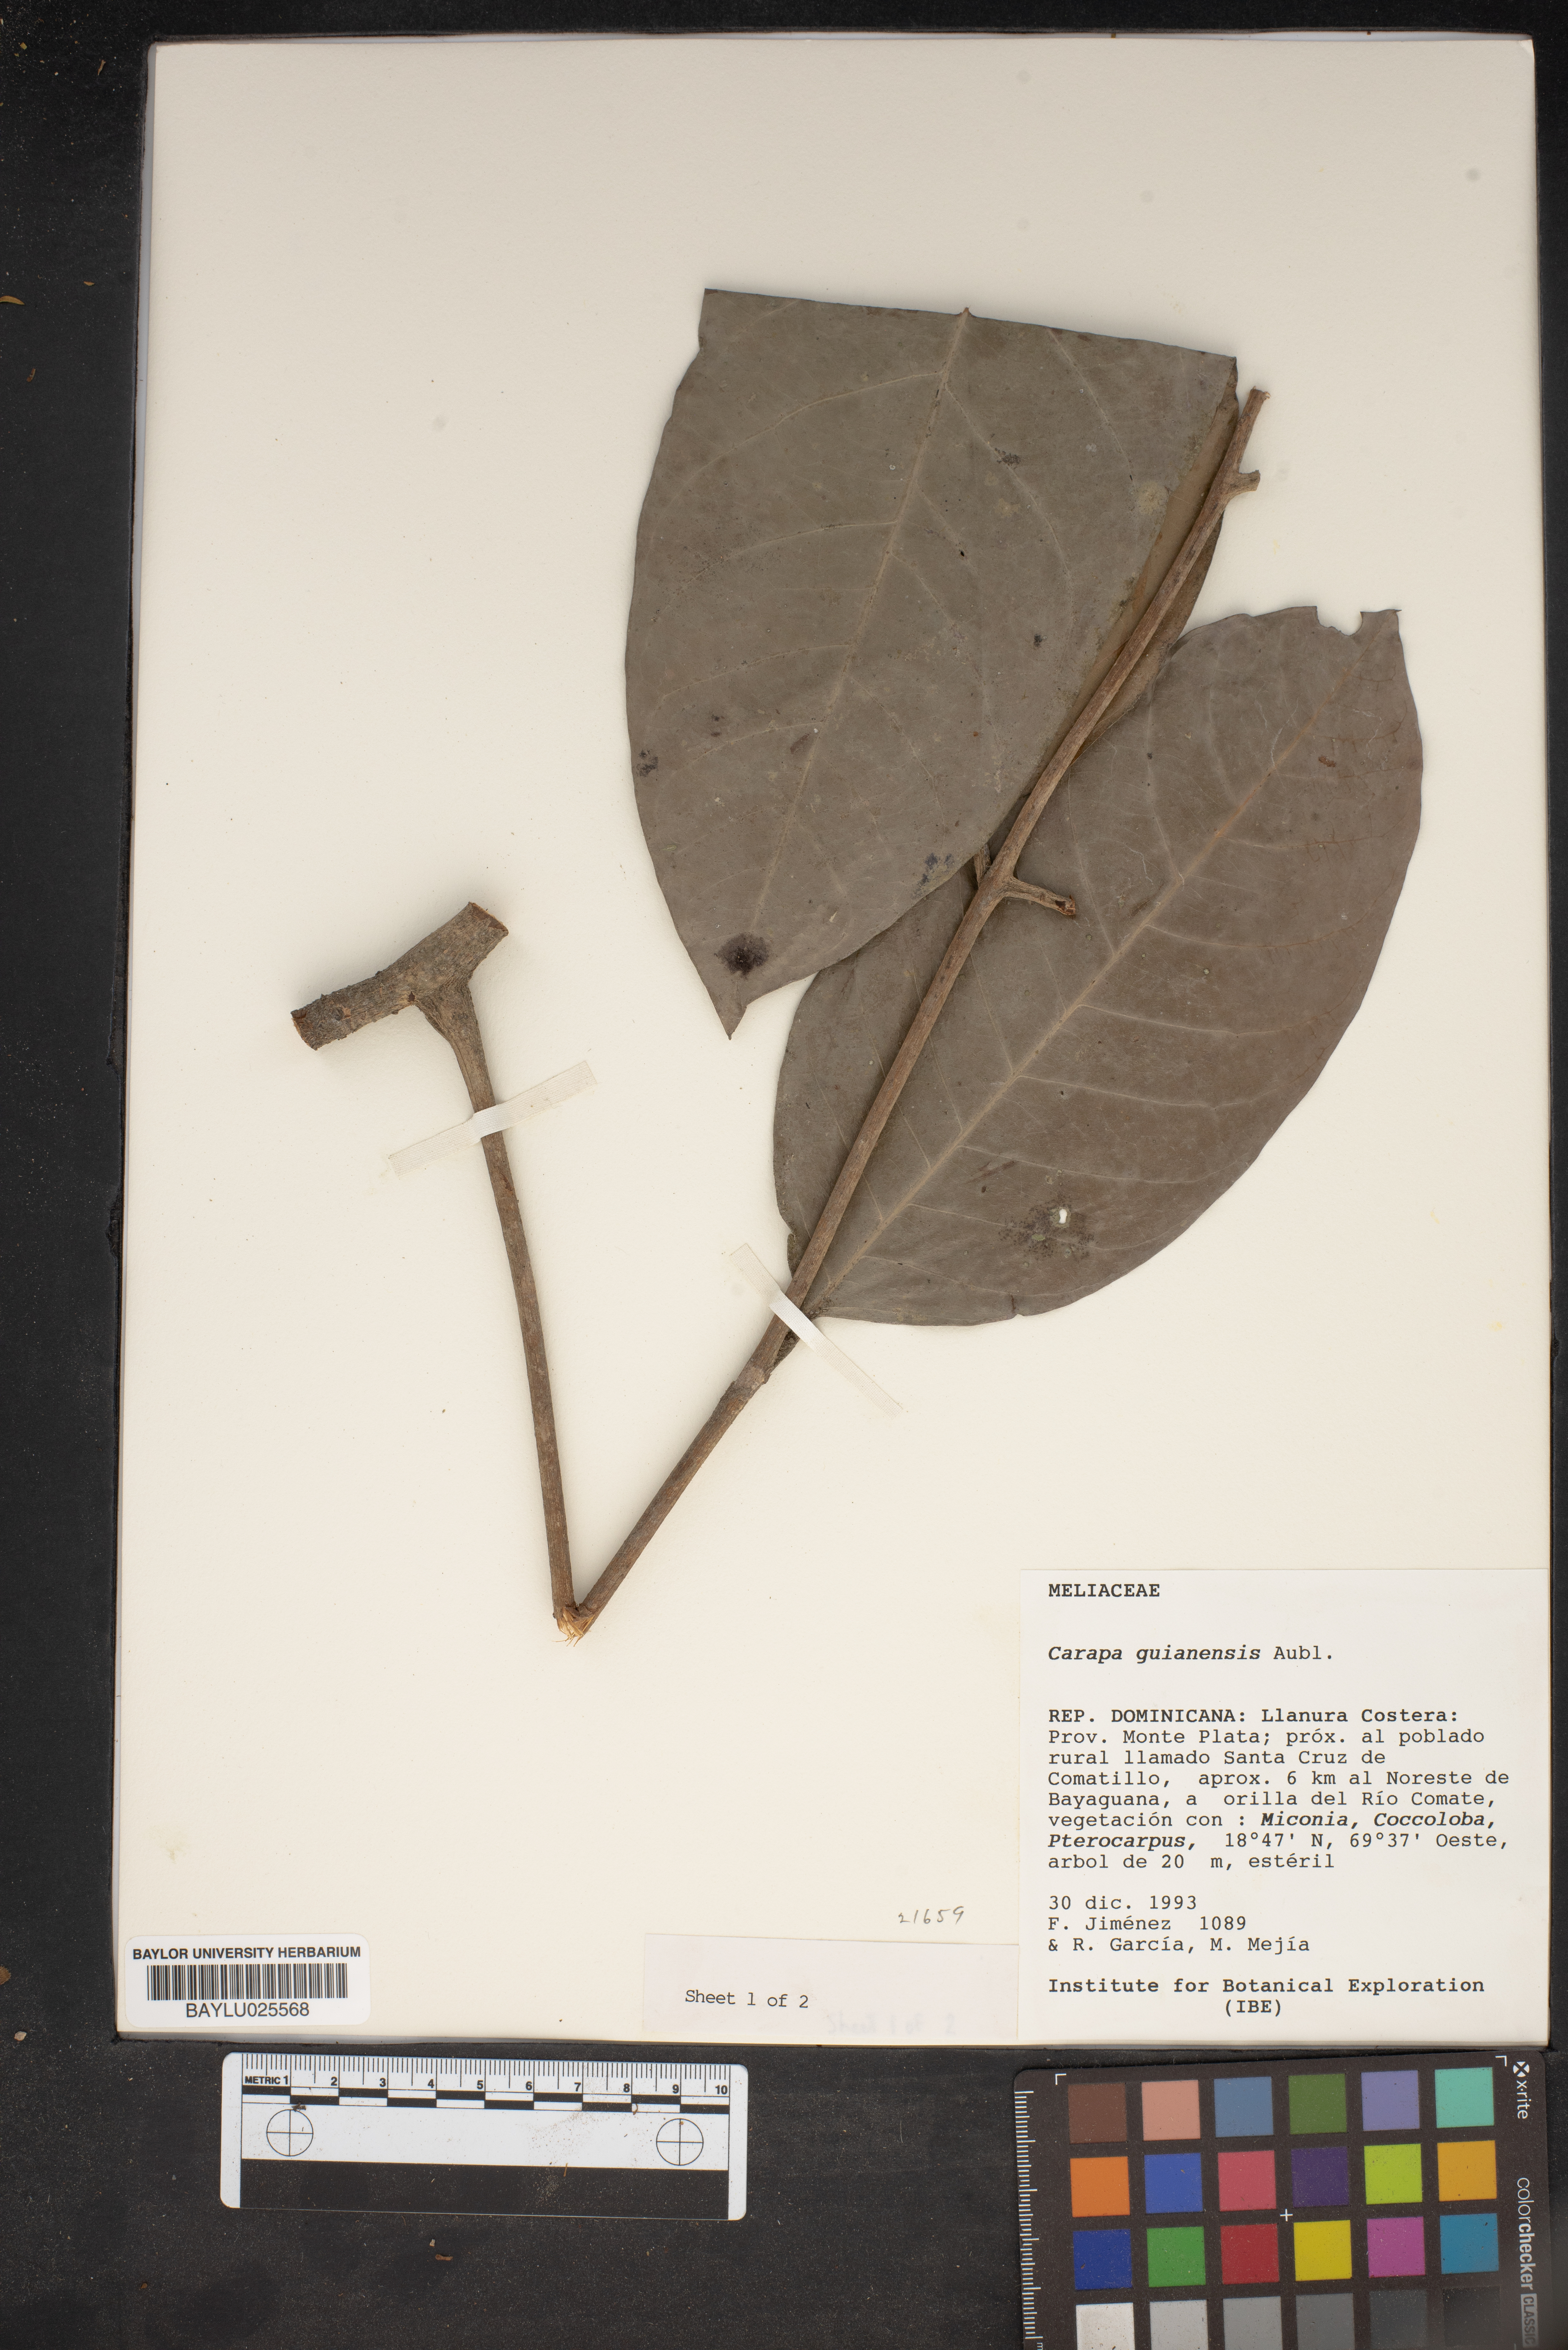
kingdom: Plantae
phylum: Tracheophyta
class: Magnoliopsida
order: Sapindales
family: Meliaceae
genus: Carapa
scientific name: Carapa guianensis
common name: Crabwood
